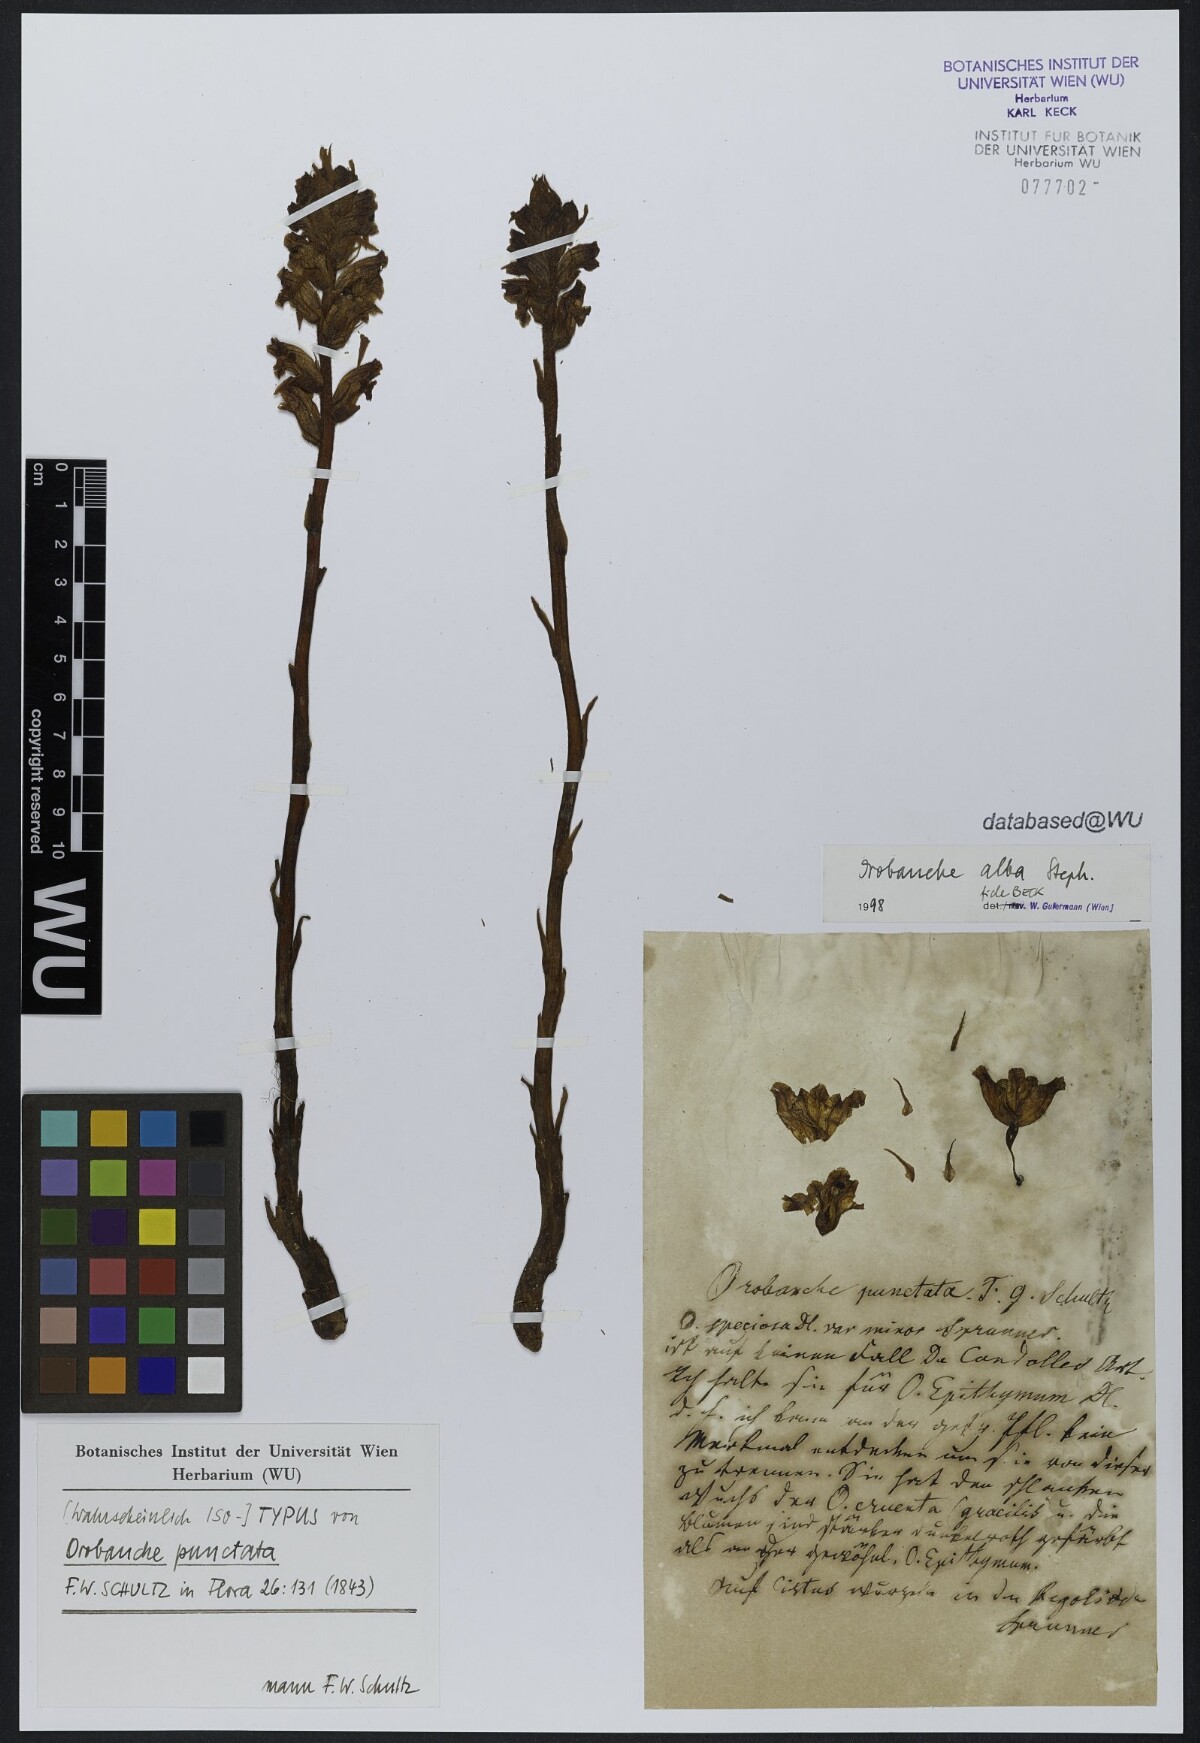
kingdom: Plantae
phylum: Tracheophyta
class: Magnoliopsida
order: Lamiales
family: Orobanchaceae
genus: Orobanche
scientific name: Orobanche alba
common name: Thyme broomrape
